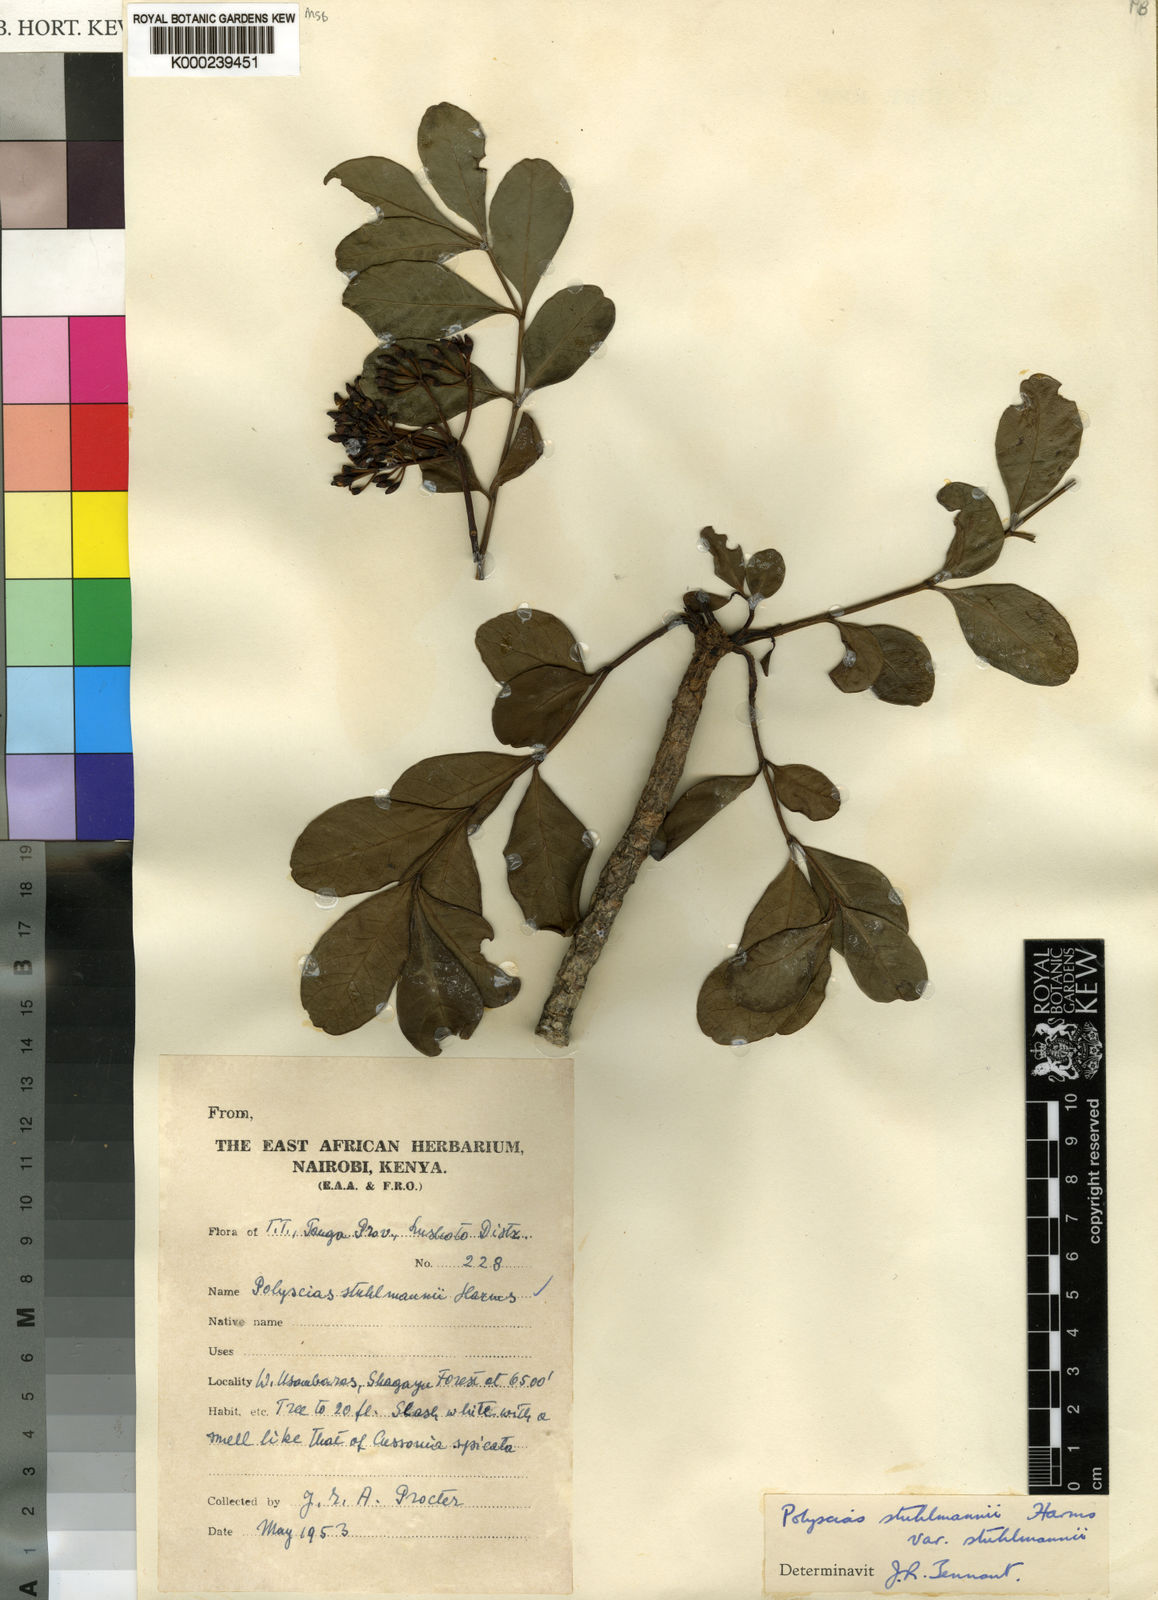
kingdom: Plantae
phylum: Tracheophyta
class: Magnoliopsida
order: Apiales
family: Araliaceae
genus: Polyscias
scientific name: Polyscias stuhlmannii
